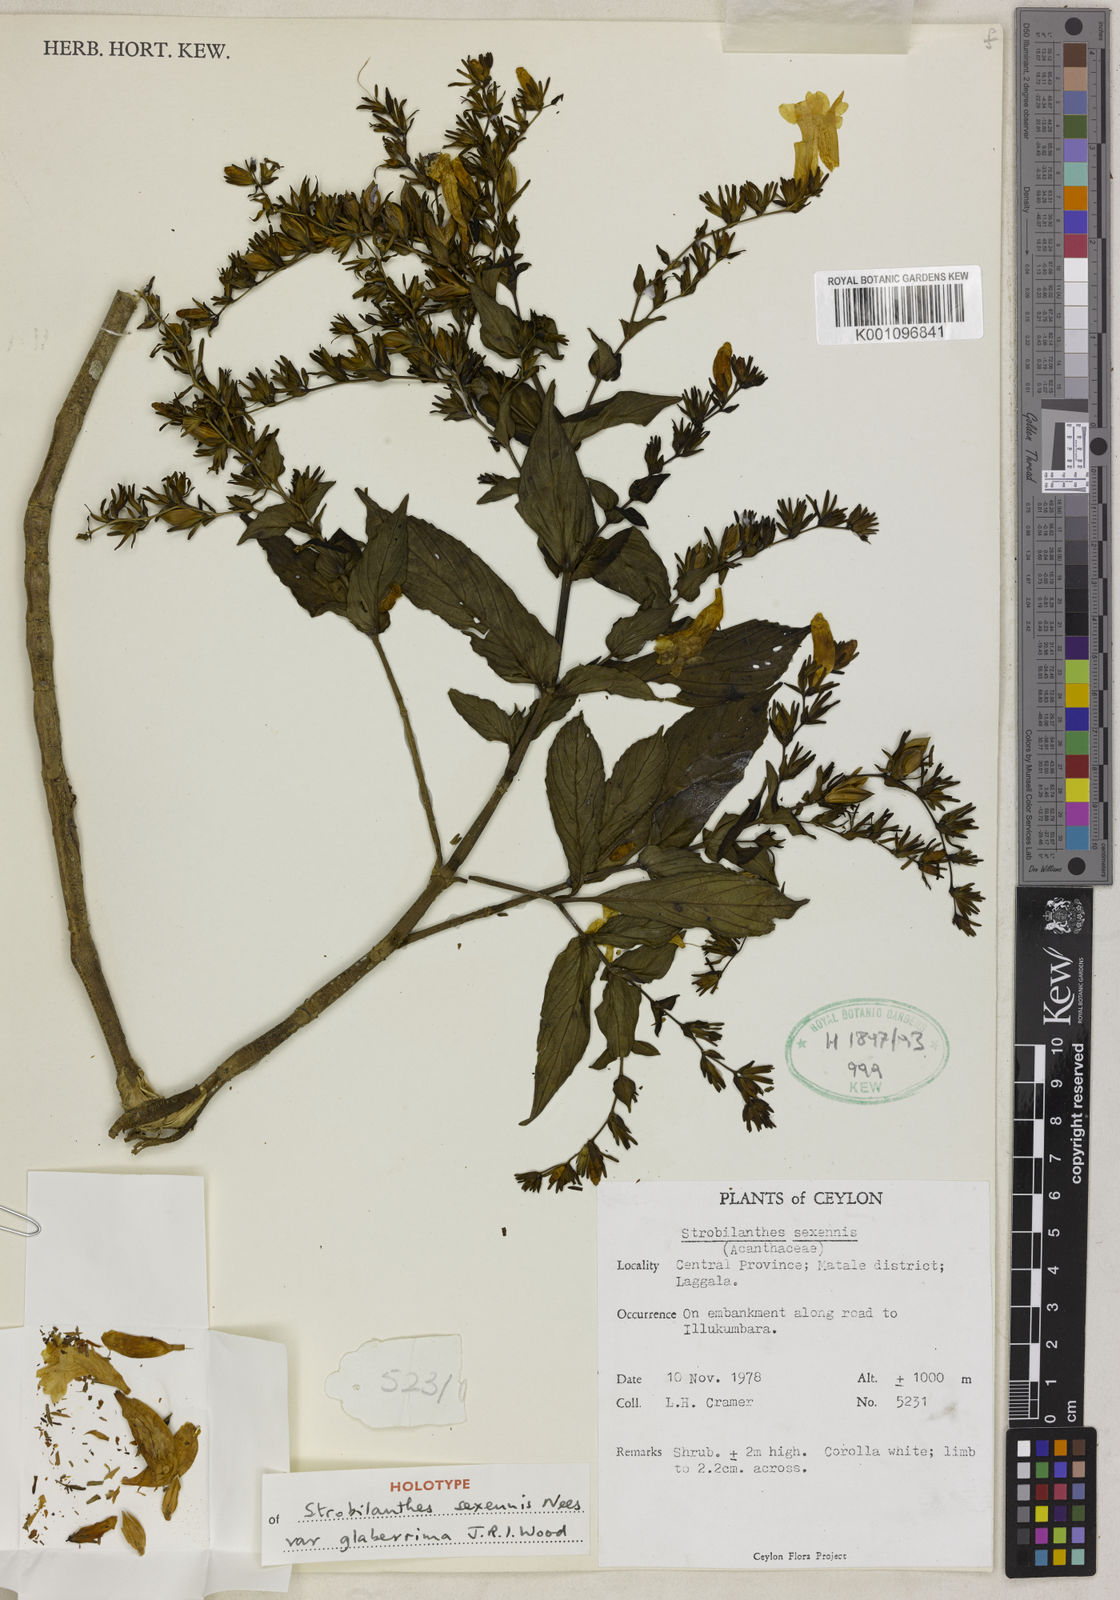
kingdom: Plantae
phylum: Tracheophyta
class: Magnoliopsida
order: Lamiales
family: Acanthaceae
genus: Strobilanthes
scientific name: Strobilanthes sexennis
